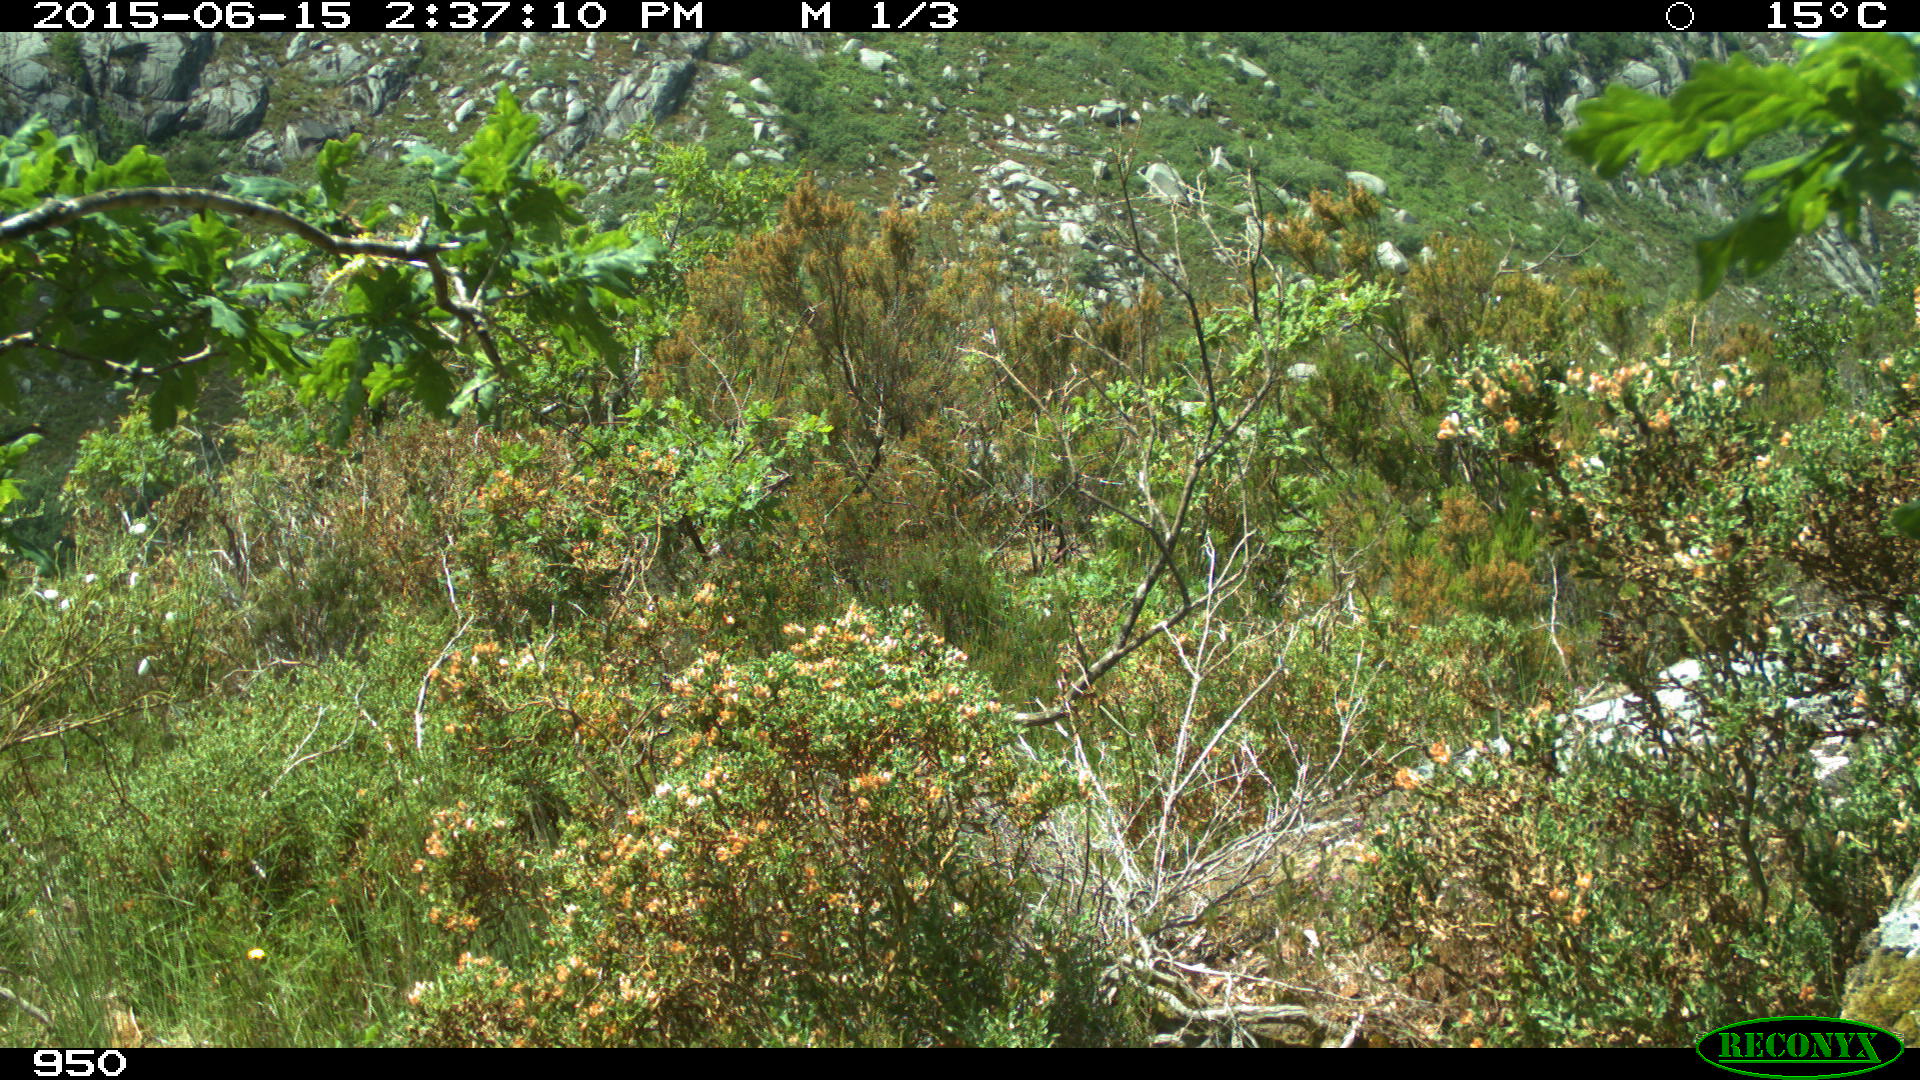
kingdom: Animalia
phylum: Chordata
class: Mammalia
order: Artiodactyla
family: Suidae
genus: Sus
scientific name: Sus scrofa
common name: Wild boar
